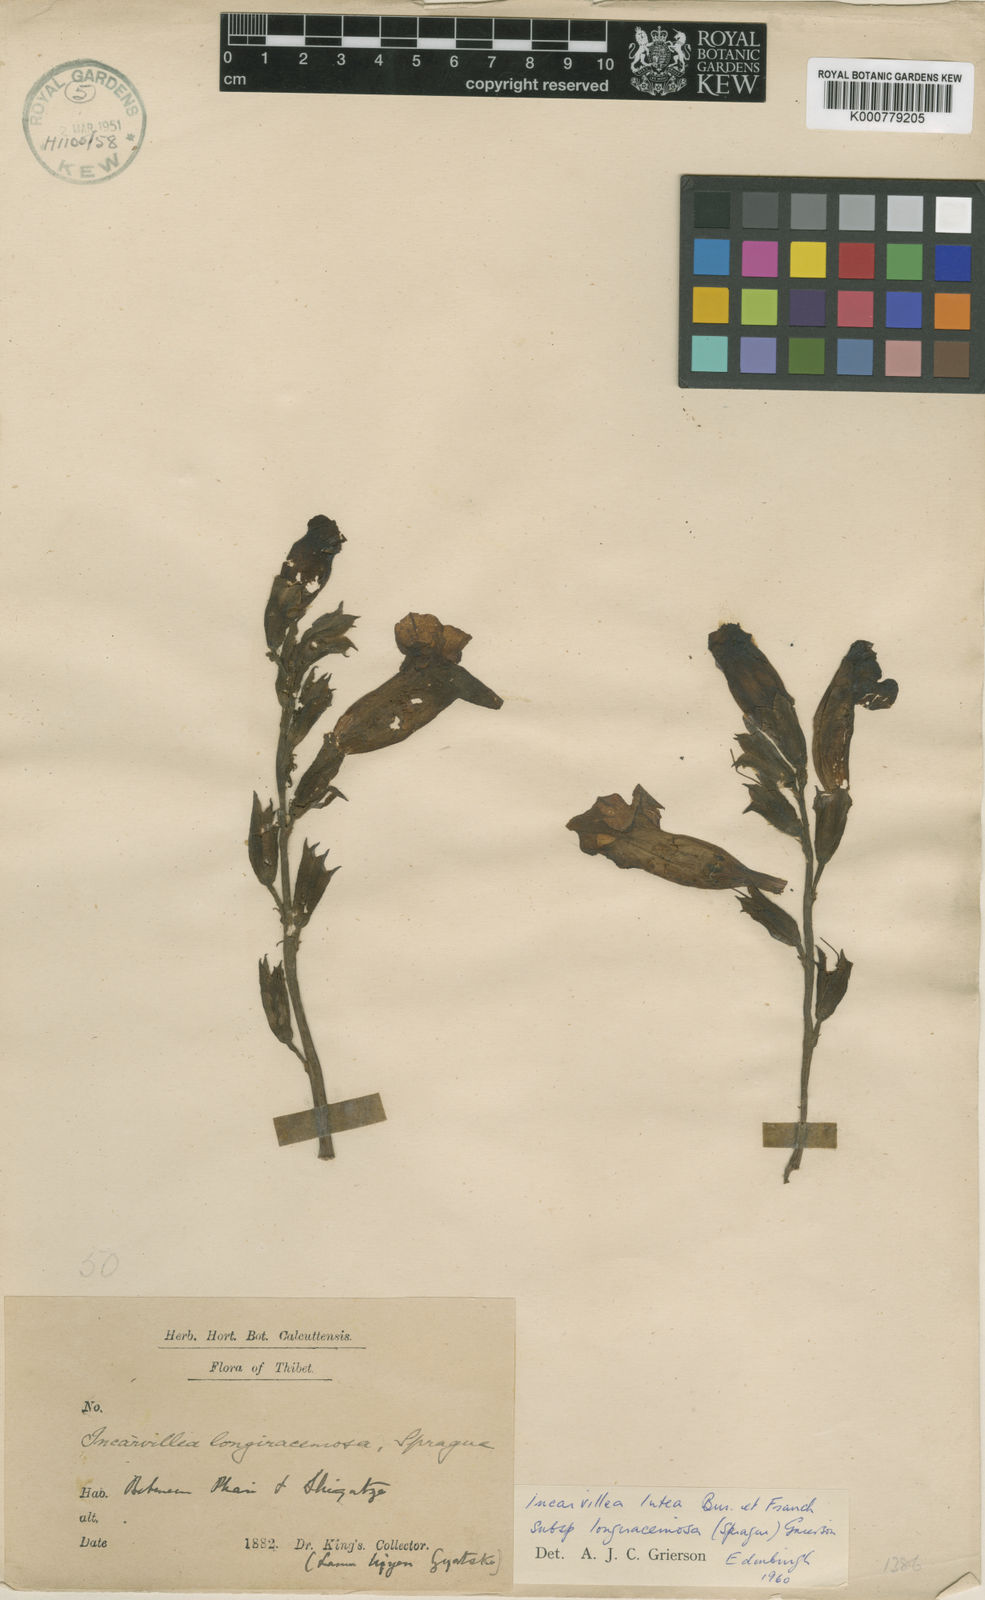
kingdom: Plantae
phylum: Tracheophyta
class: Magnoliopsida
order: Lamiales
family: Bignoniaceae
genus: Incarvillea
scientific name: Incarvillea lutea
